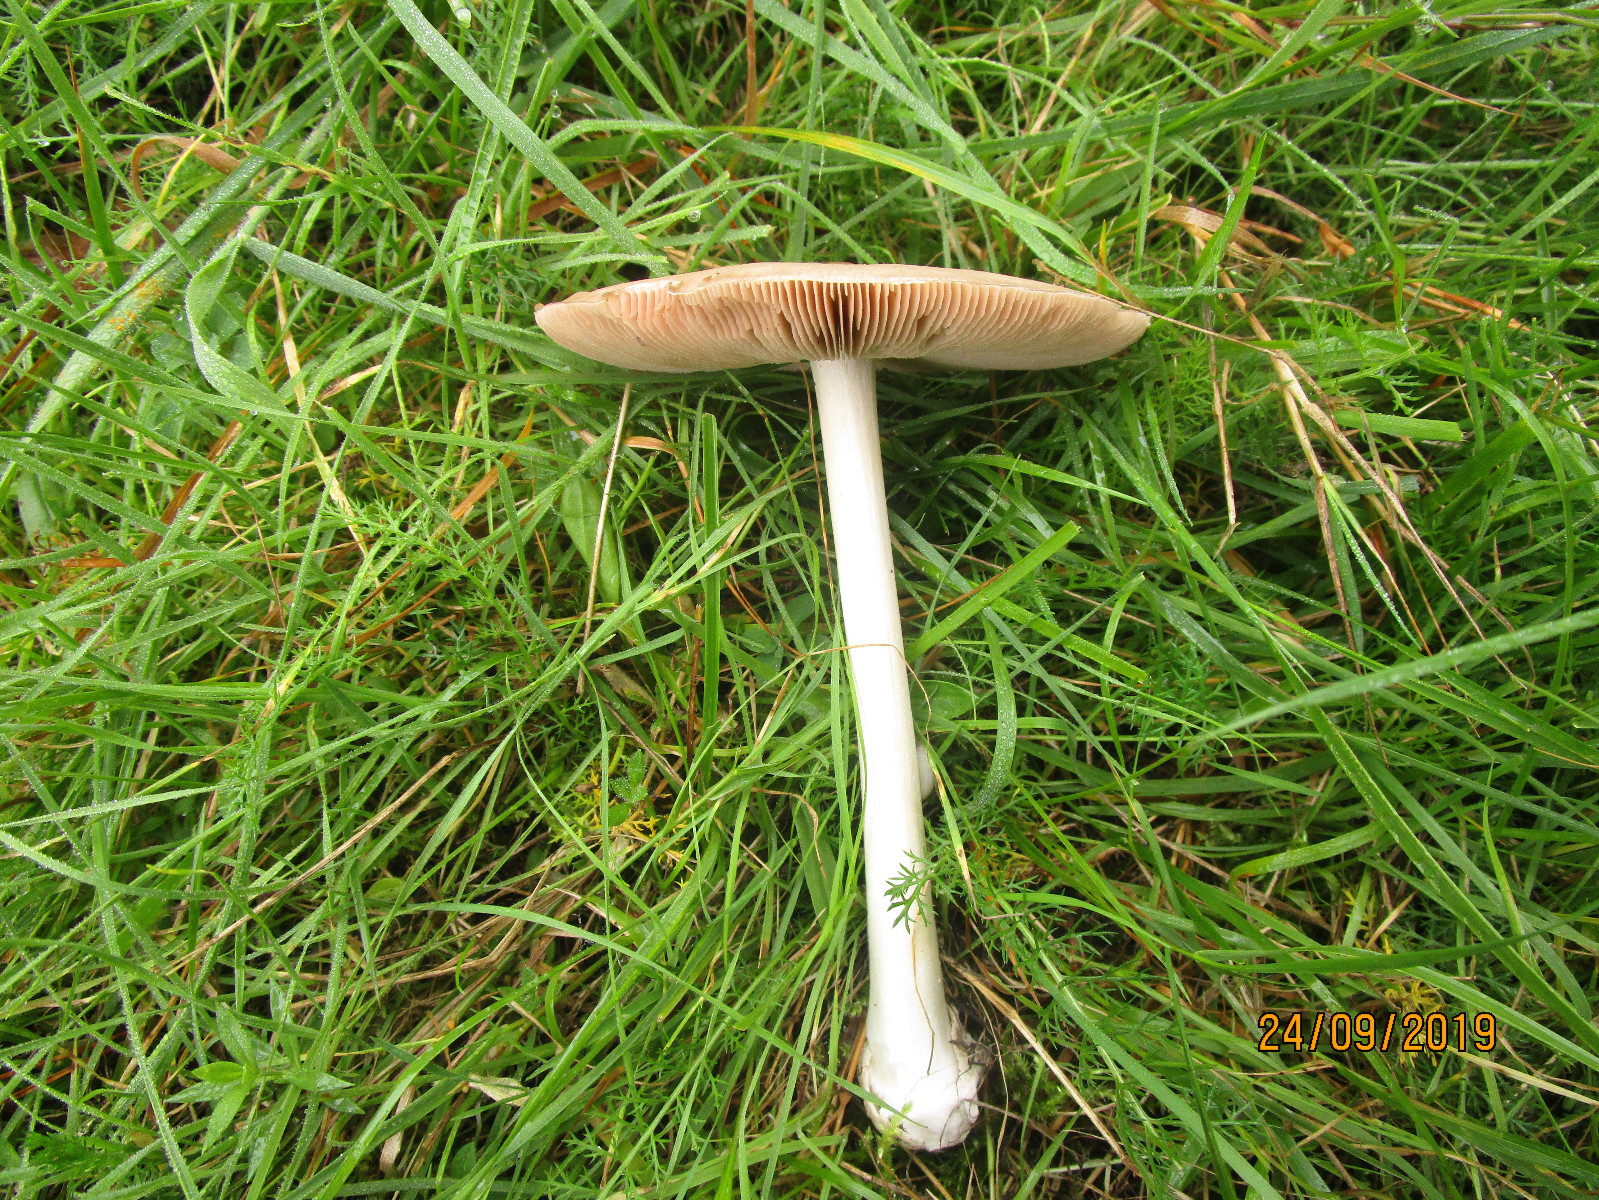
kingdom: Fungi
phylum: Basidiomycota
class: Agaricomycetes
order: Agaricales
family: Pluteaceae
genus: Volvopluteus
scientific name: Volvopluteus gloiocephalus
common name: høj posesvamp
